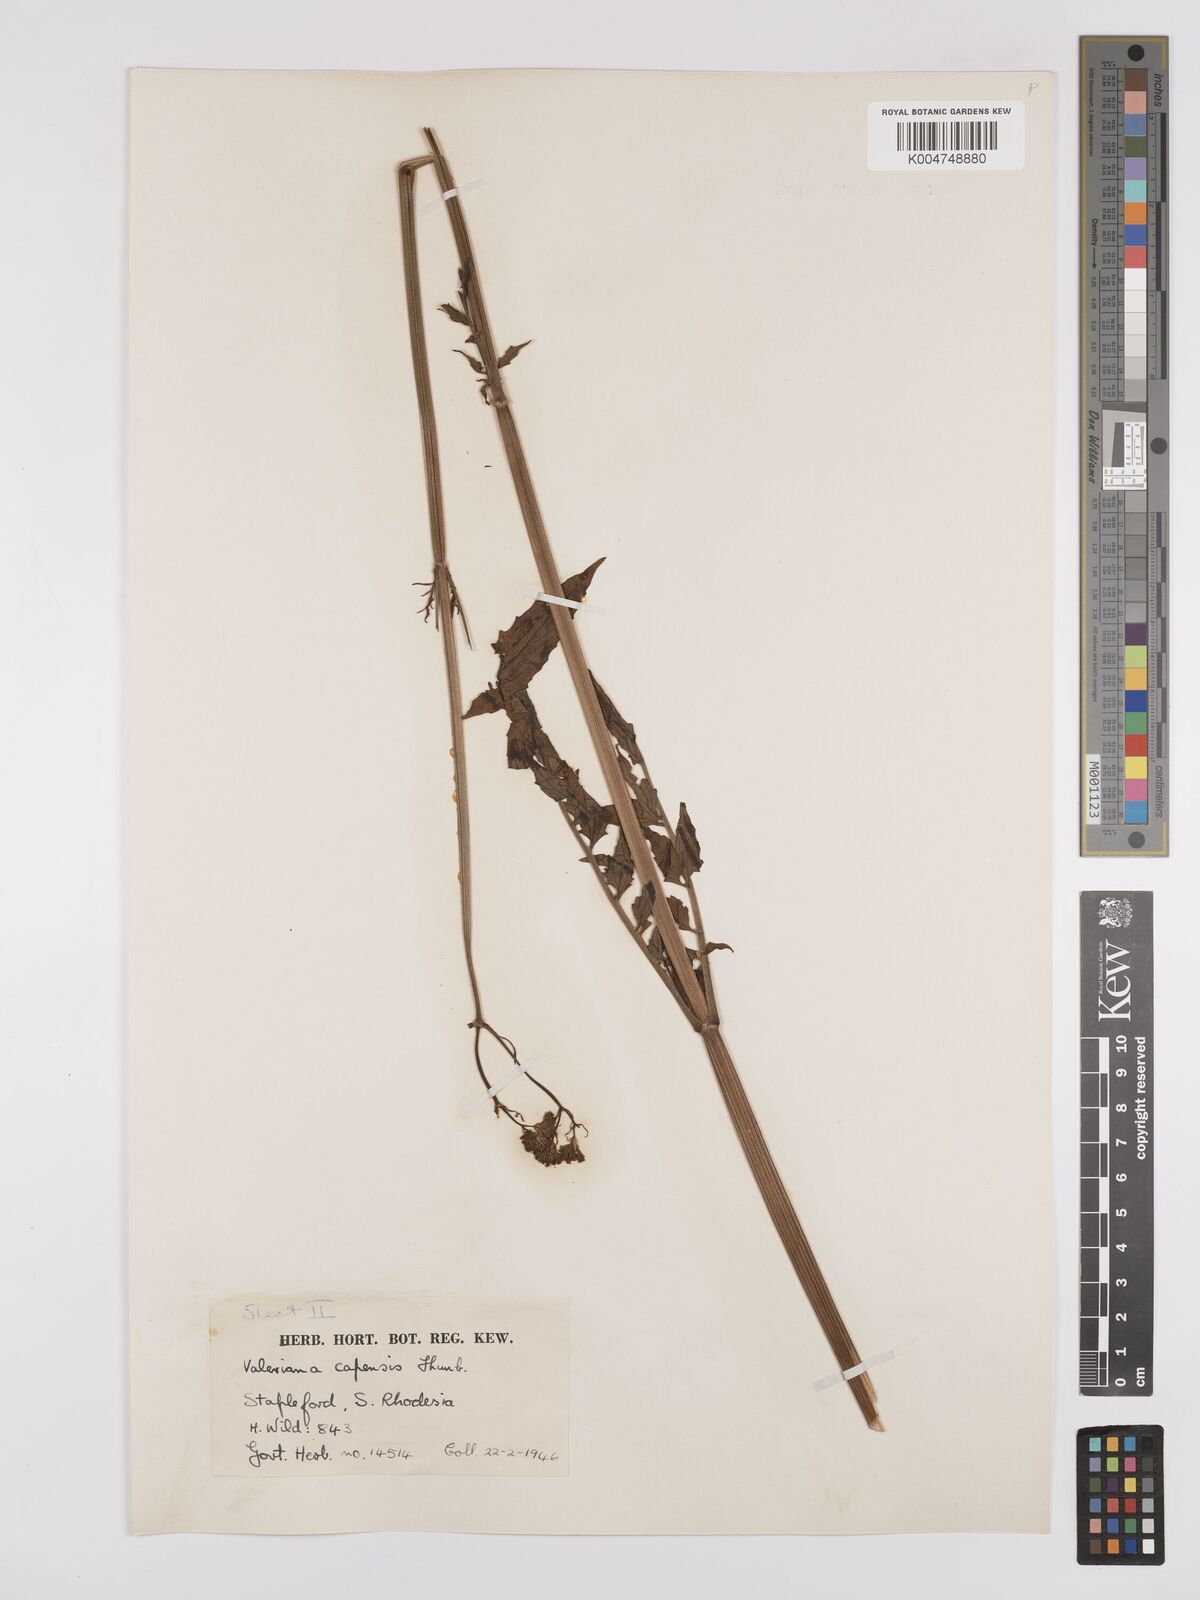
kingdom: Plantae
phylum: Tracheophyta
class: Magnoliopsida
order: Dipsacales
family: Caprifoliaceae
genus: Valeriana
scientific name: Valeriana capensis
